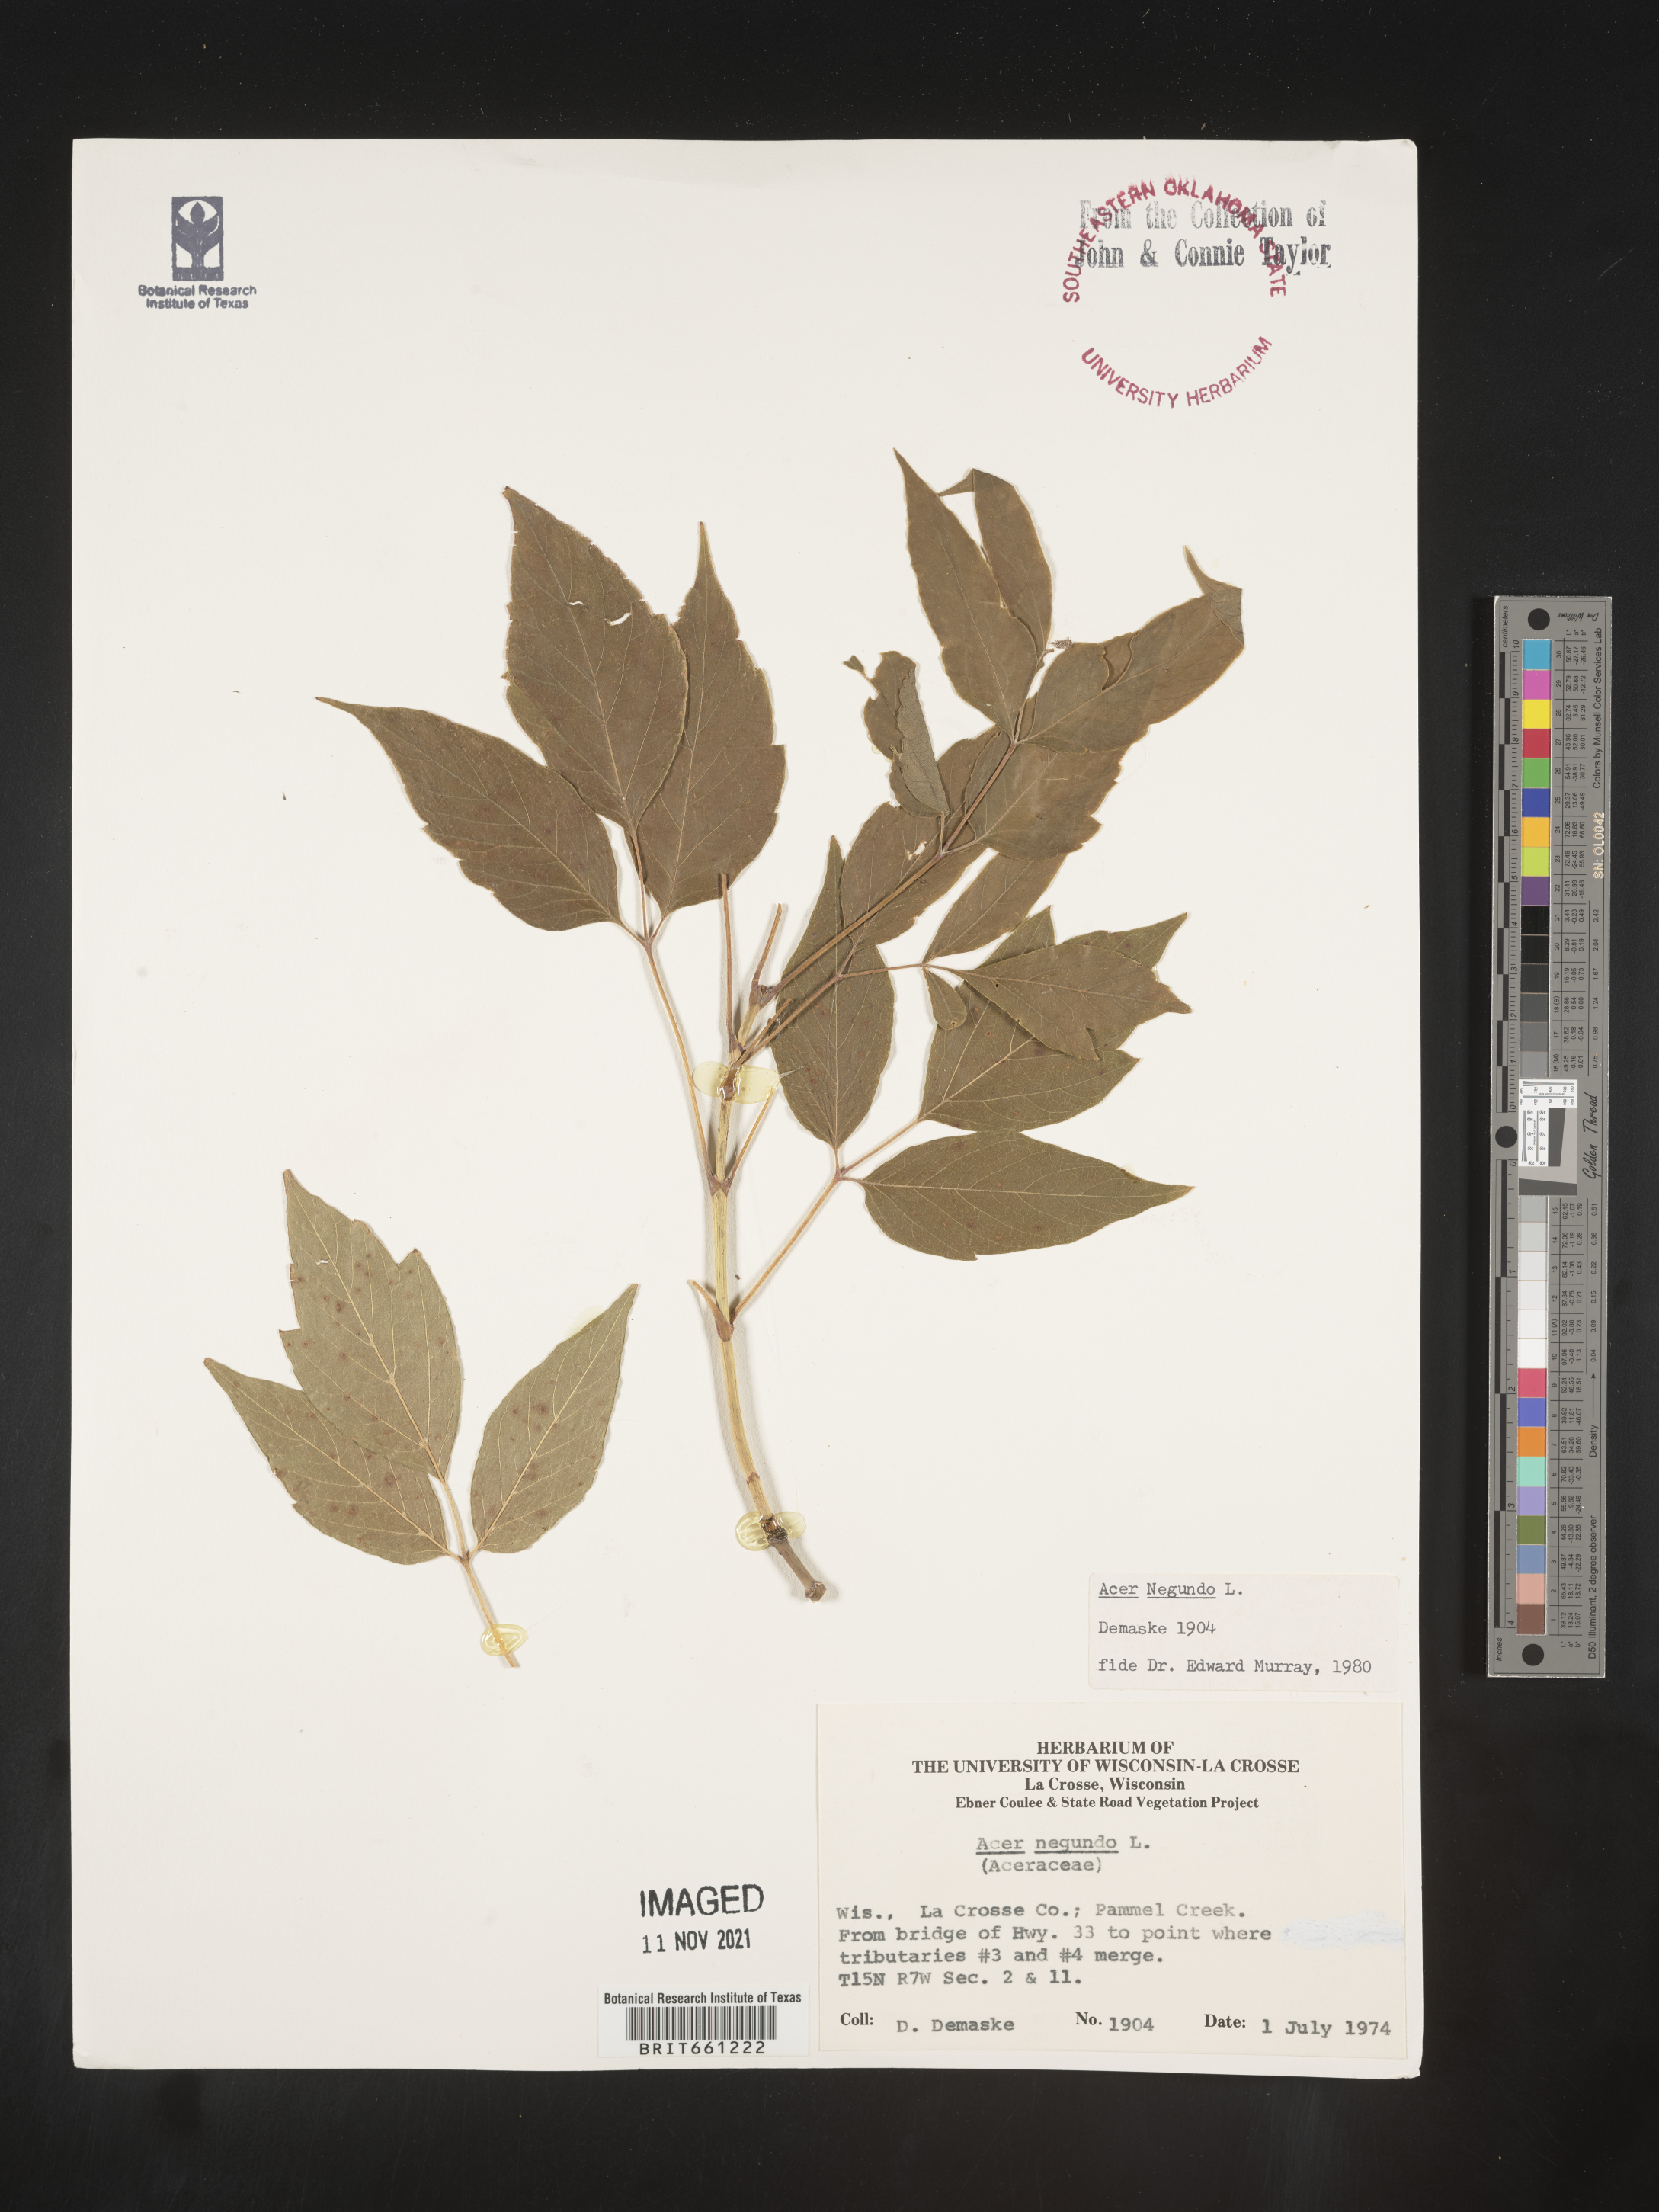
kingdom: Plantae
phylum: Tracheophyta
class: Magnoliopsida
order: Sapindales
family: Sapindaceae
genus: Acer
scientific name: Acer negundo
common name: Ashleaf maple
